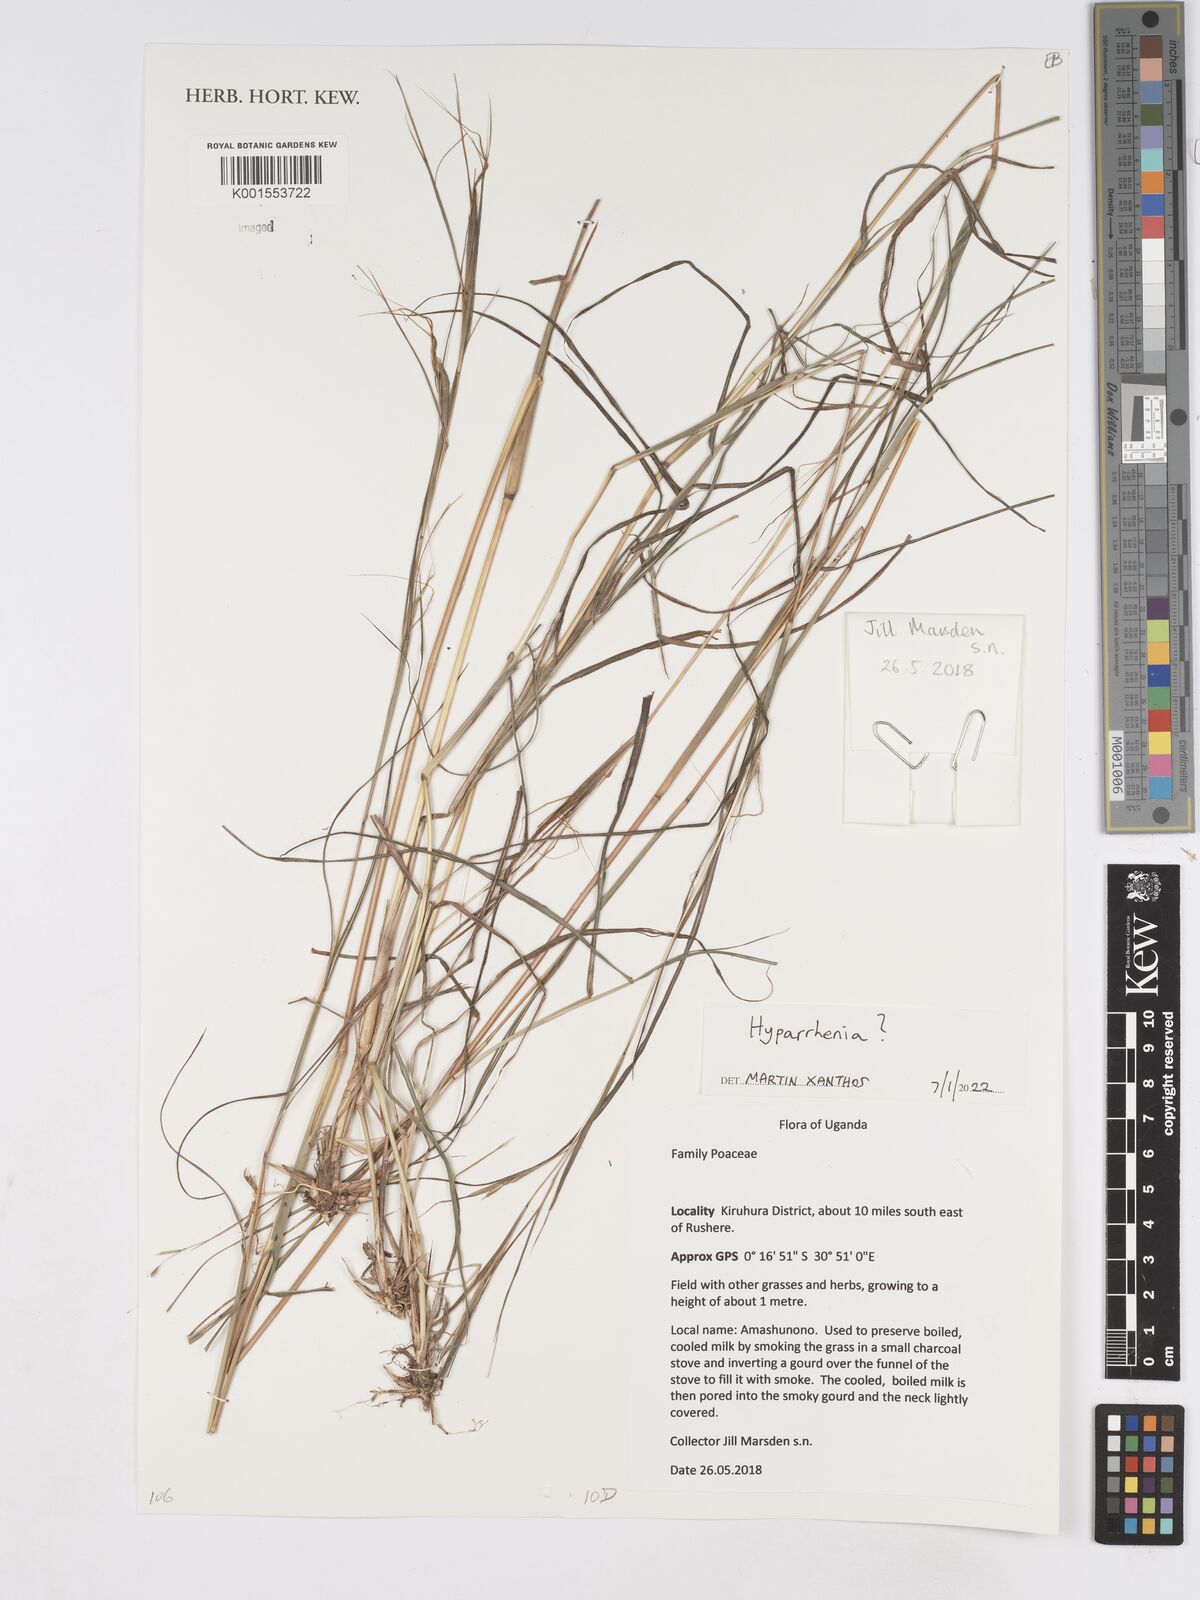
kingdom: Plantae
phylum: Tracheophyta
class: Liliopsida
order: Poales
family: Poaceae
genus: Hyparrhenia
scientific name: Hyparrhenia
